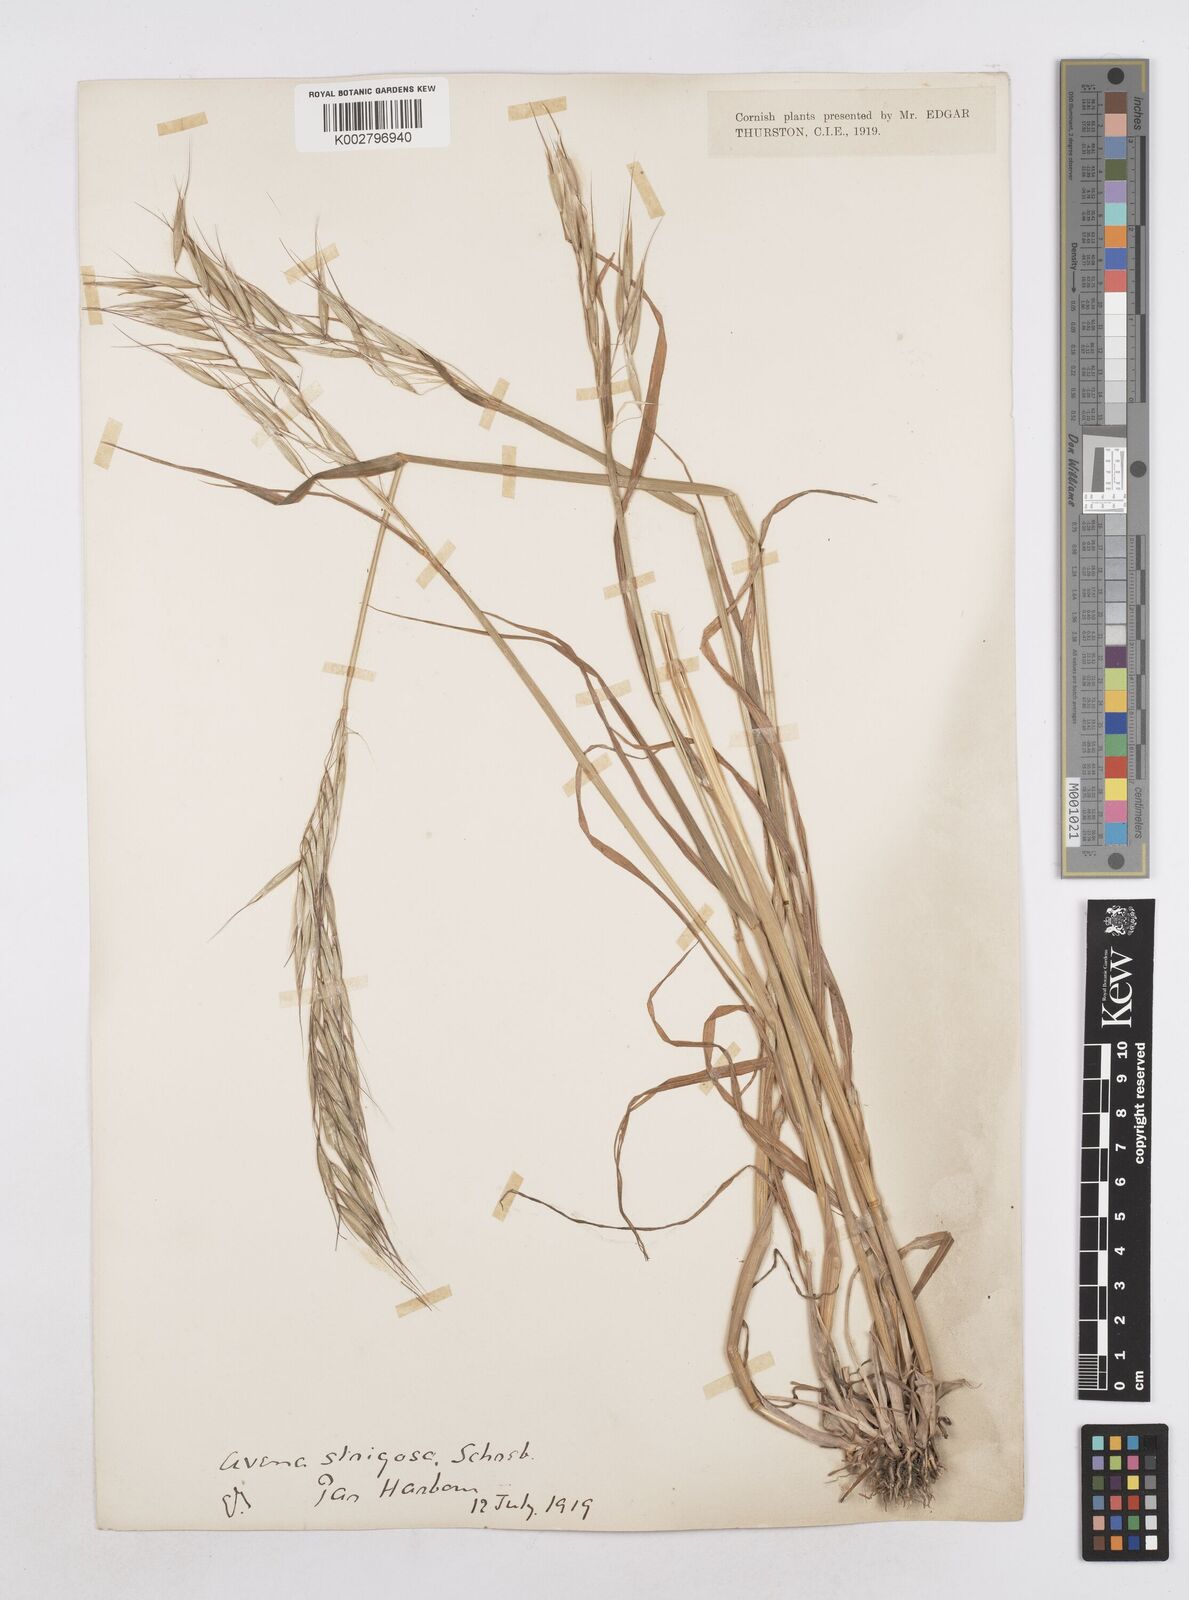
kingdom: Plantae
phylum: Tracheophyta
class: Liliopsida
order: Poales
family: Poaceae
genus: Avena
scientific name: Avena strigosa
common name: Bristle oat
